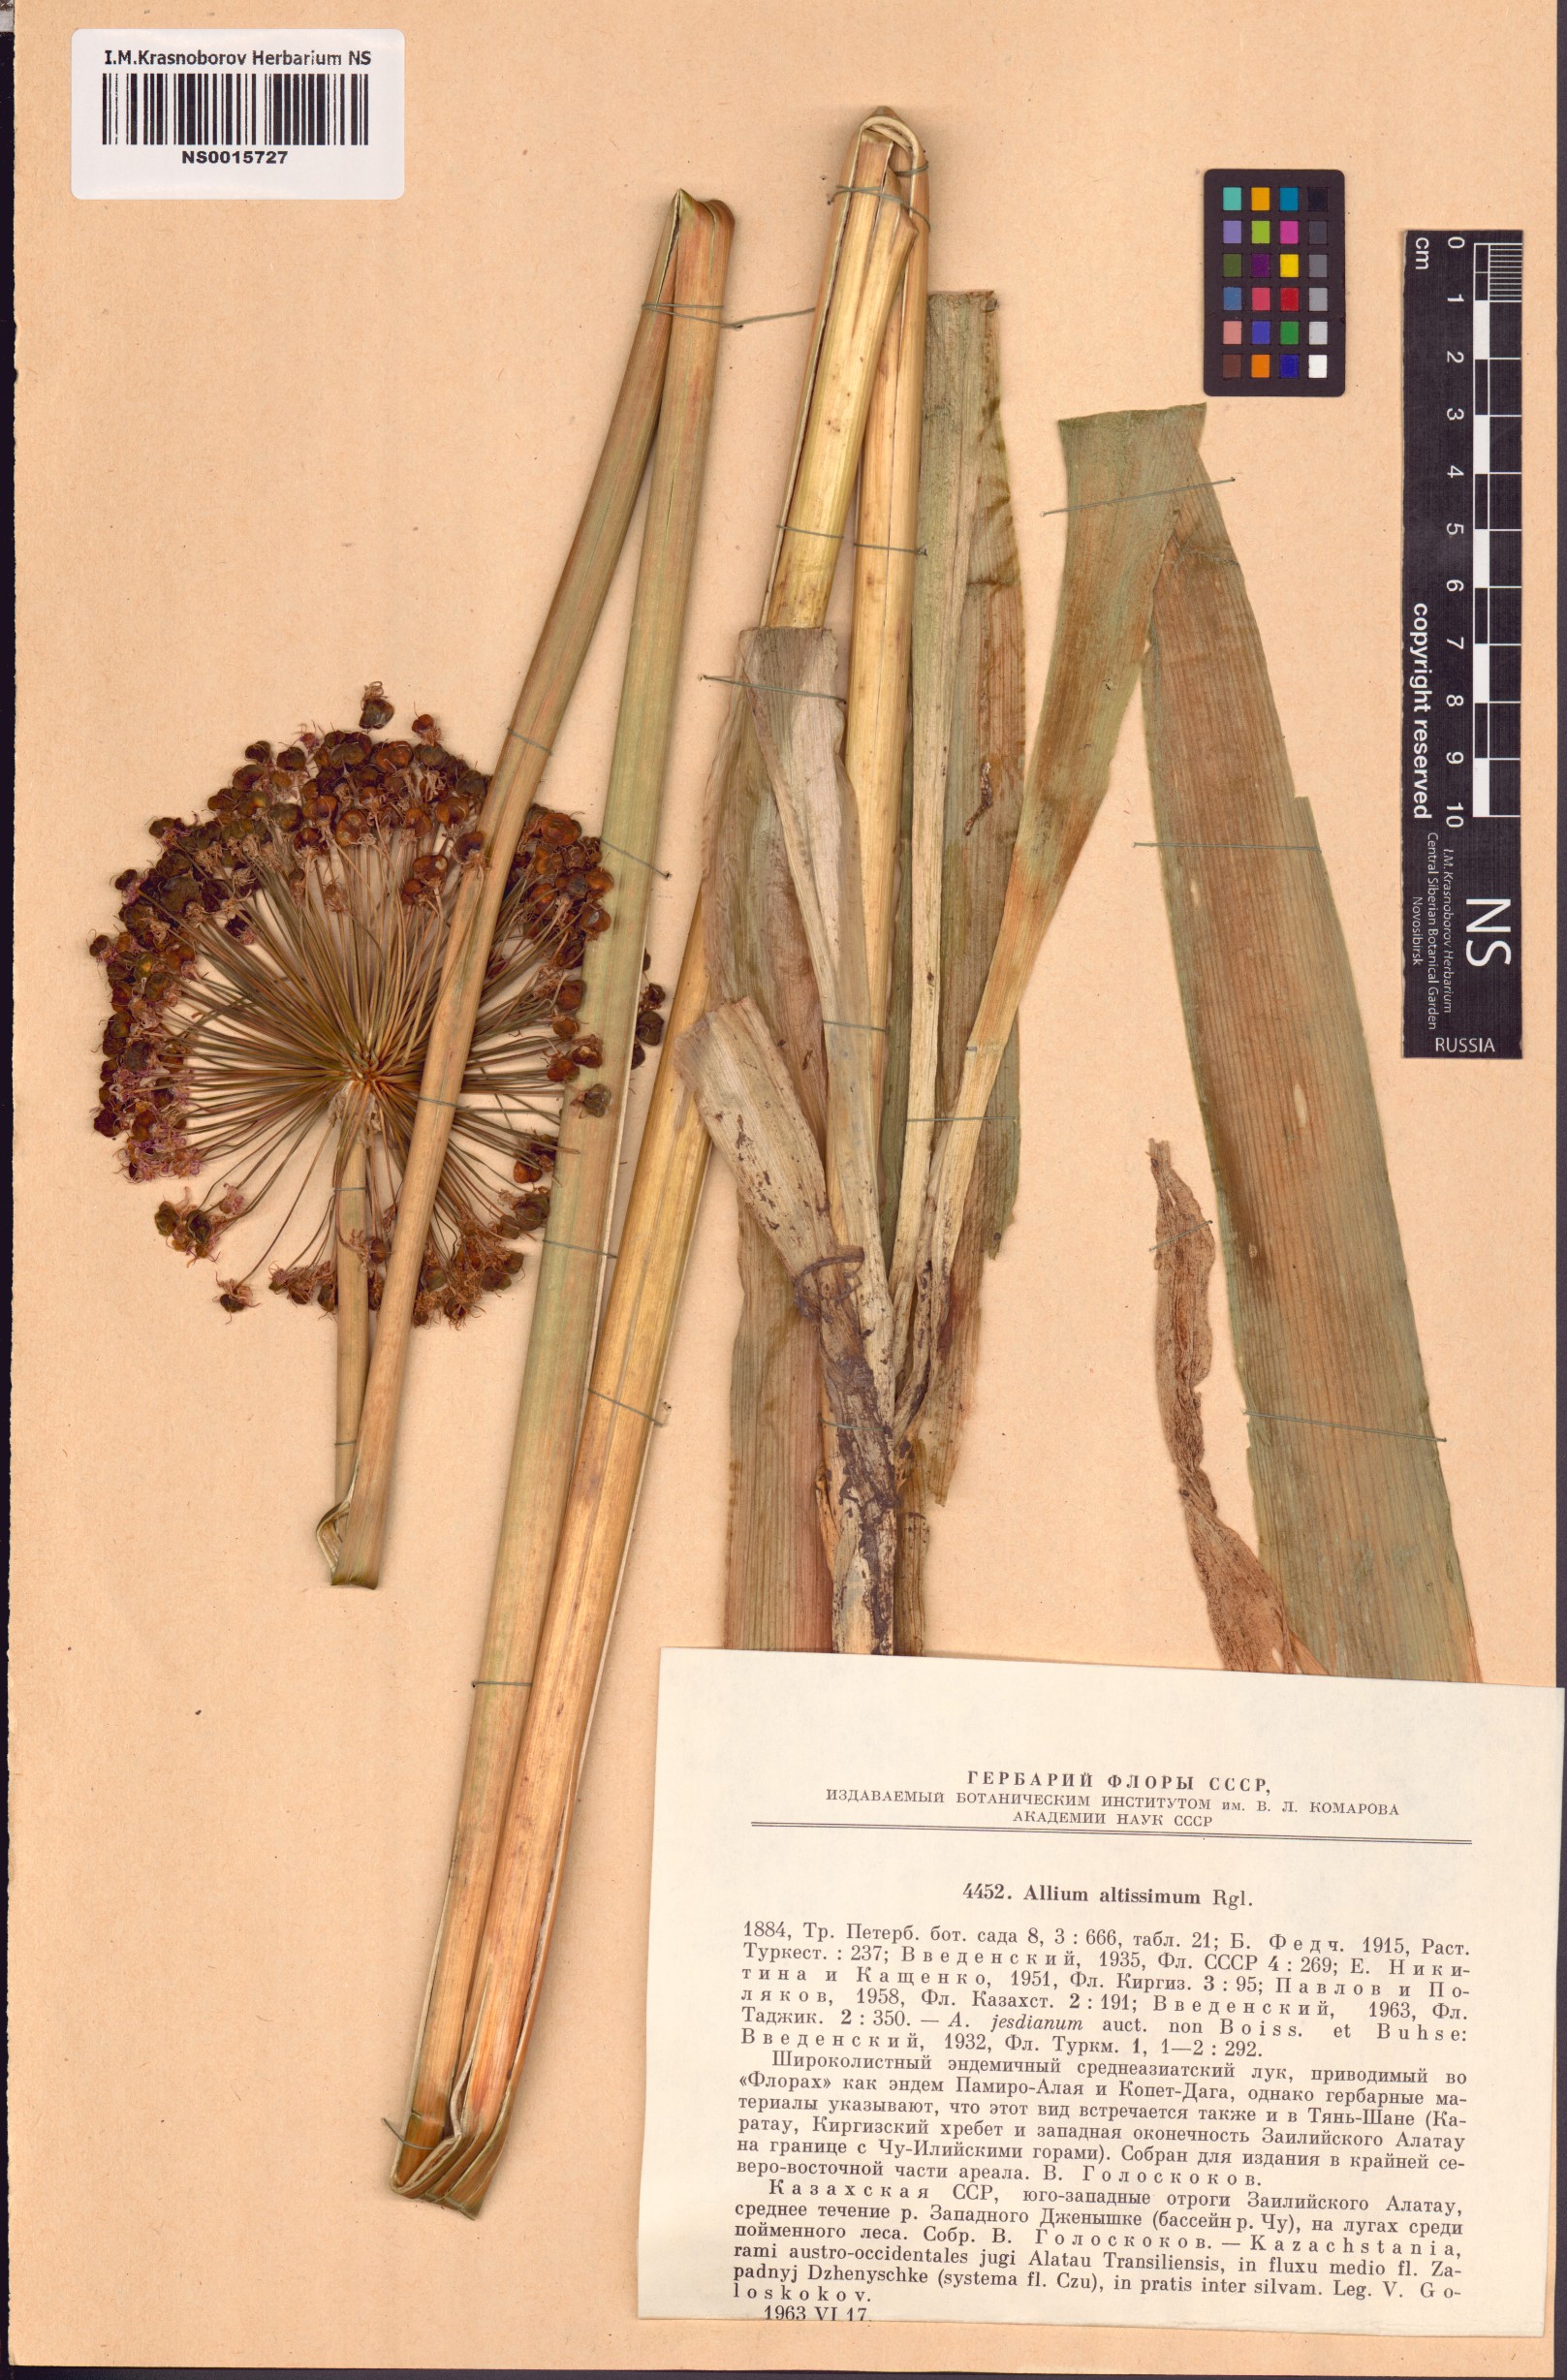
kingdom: Plantae
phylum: Tracheophyta
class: Liliopsida
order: Asparagales
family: Amaryllidaceae
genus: Allium
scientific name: Allium altissimum
